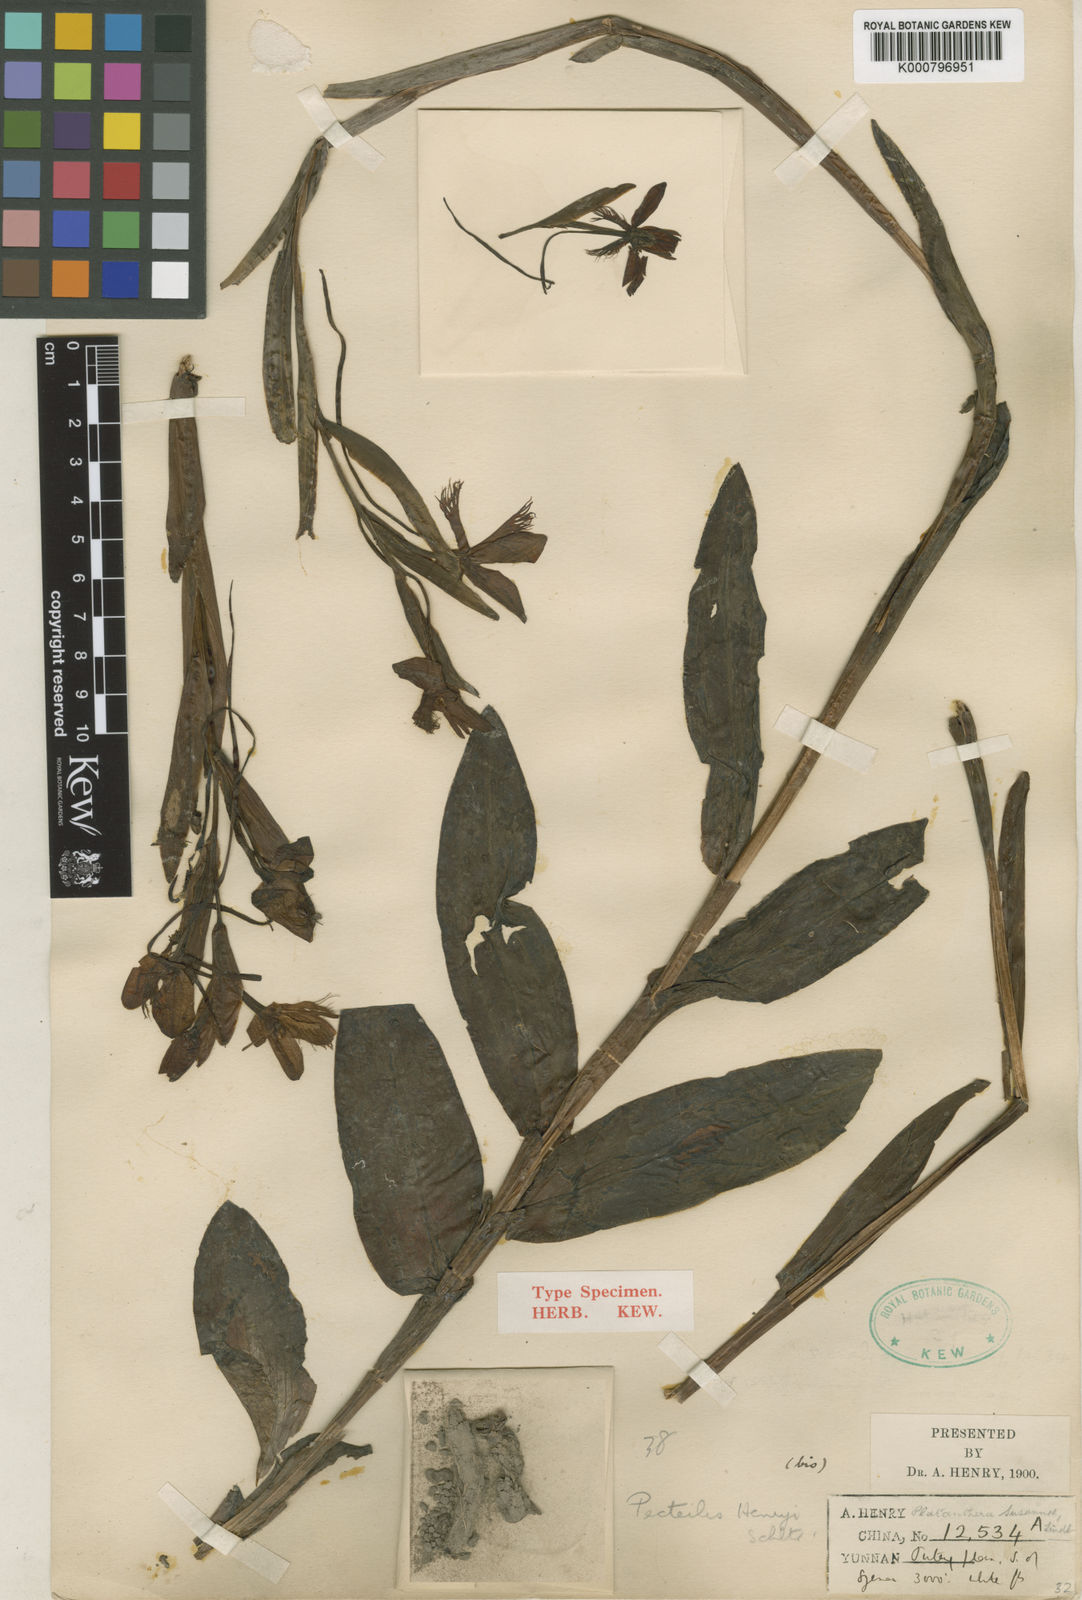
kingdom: Plantae
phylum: Tracheophyta
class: Liliopsida
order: Asparagales
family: Orchidaceae
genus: Pecteilis
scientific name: Pecteilis henryi
